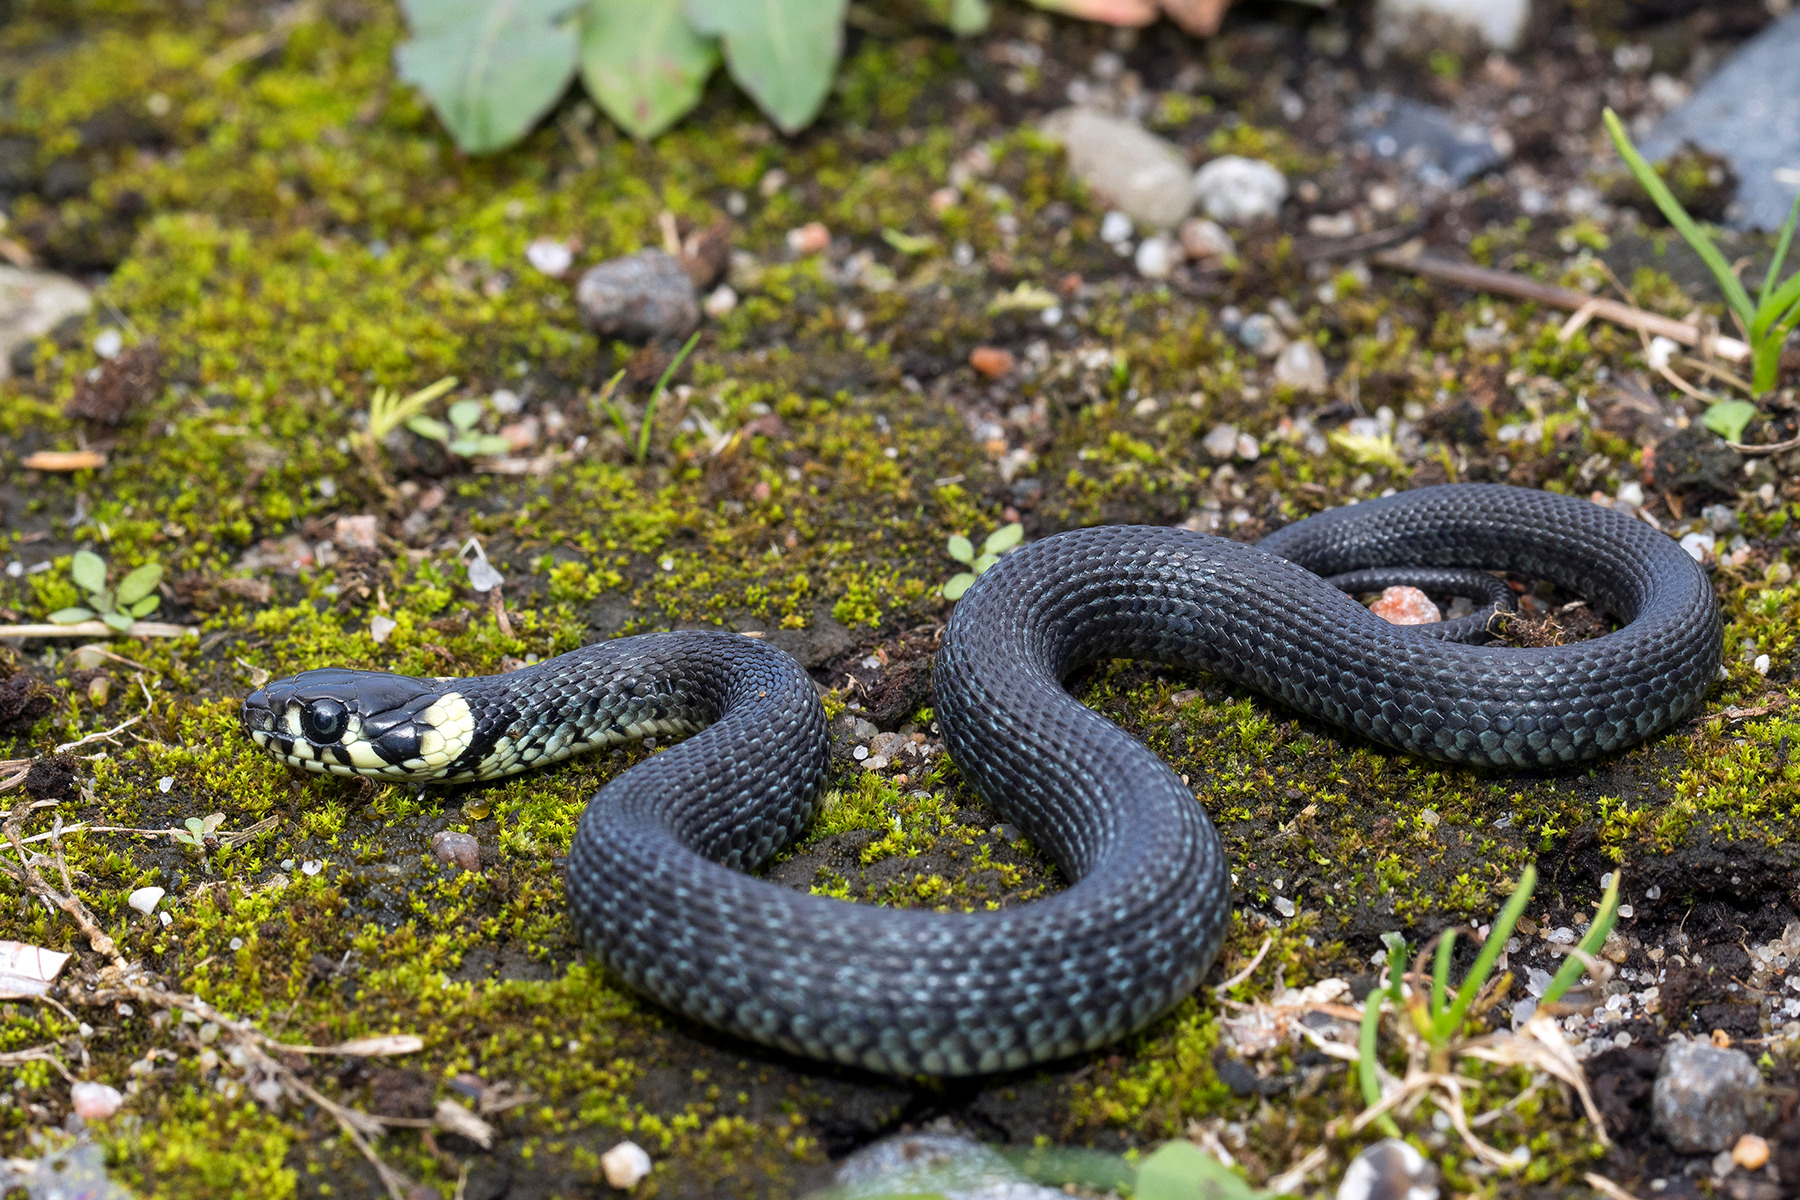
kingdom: Animalia
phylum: Chordata
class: Squamata
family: Colubridae
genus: Natrix
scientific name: Natrix natrix
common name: Snog
